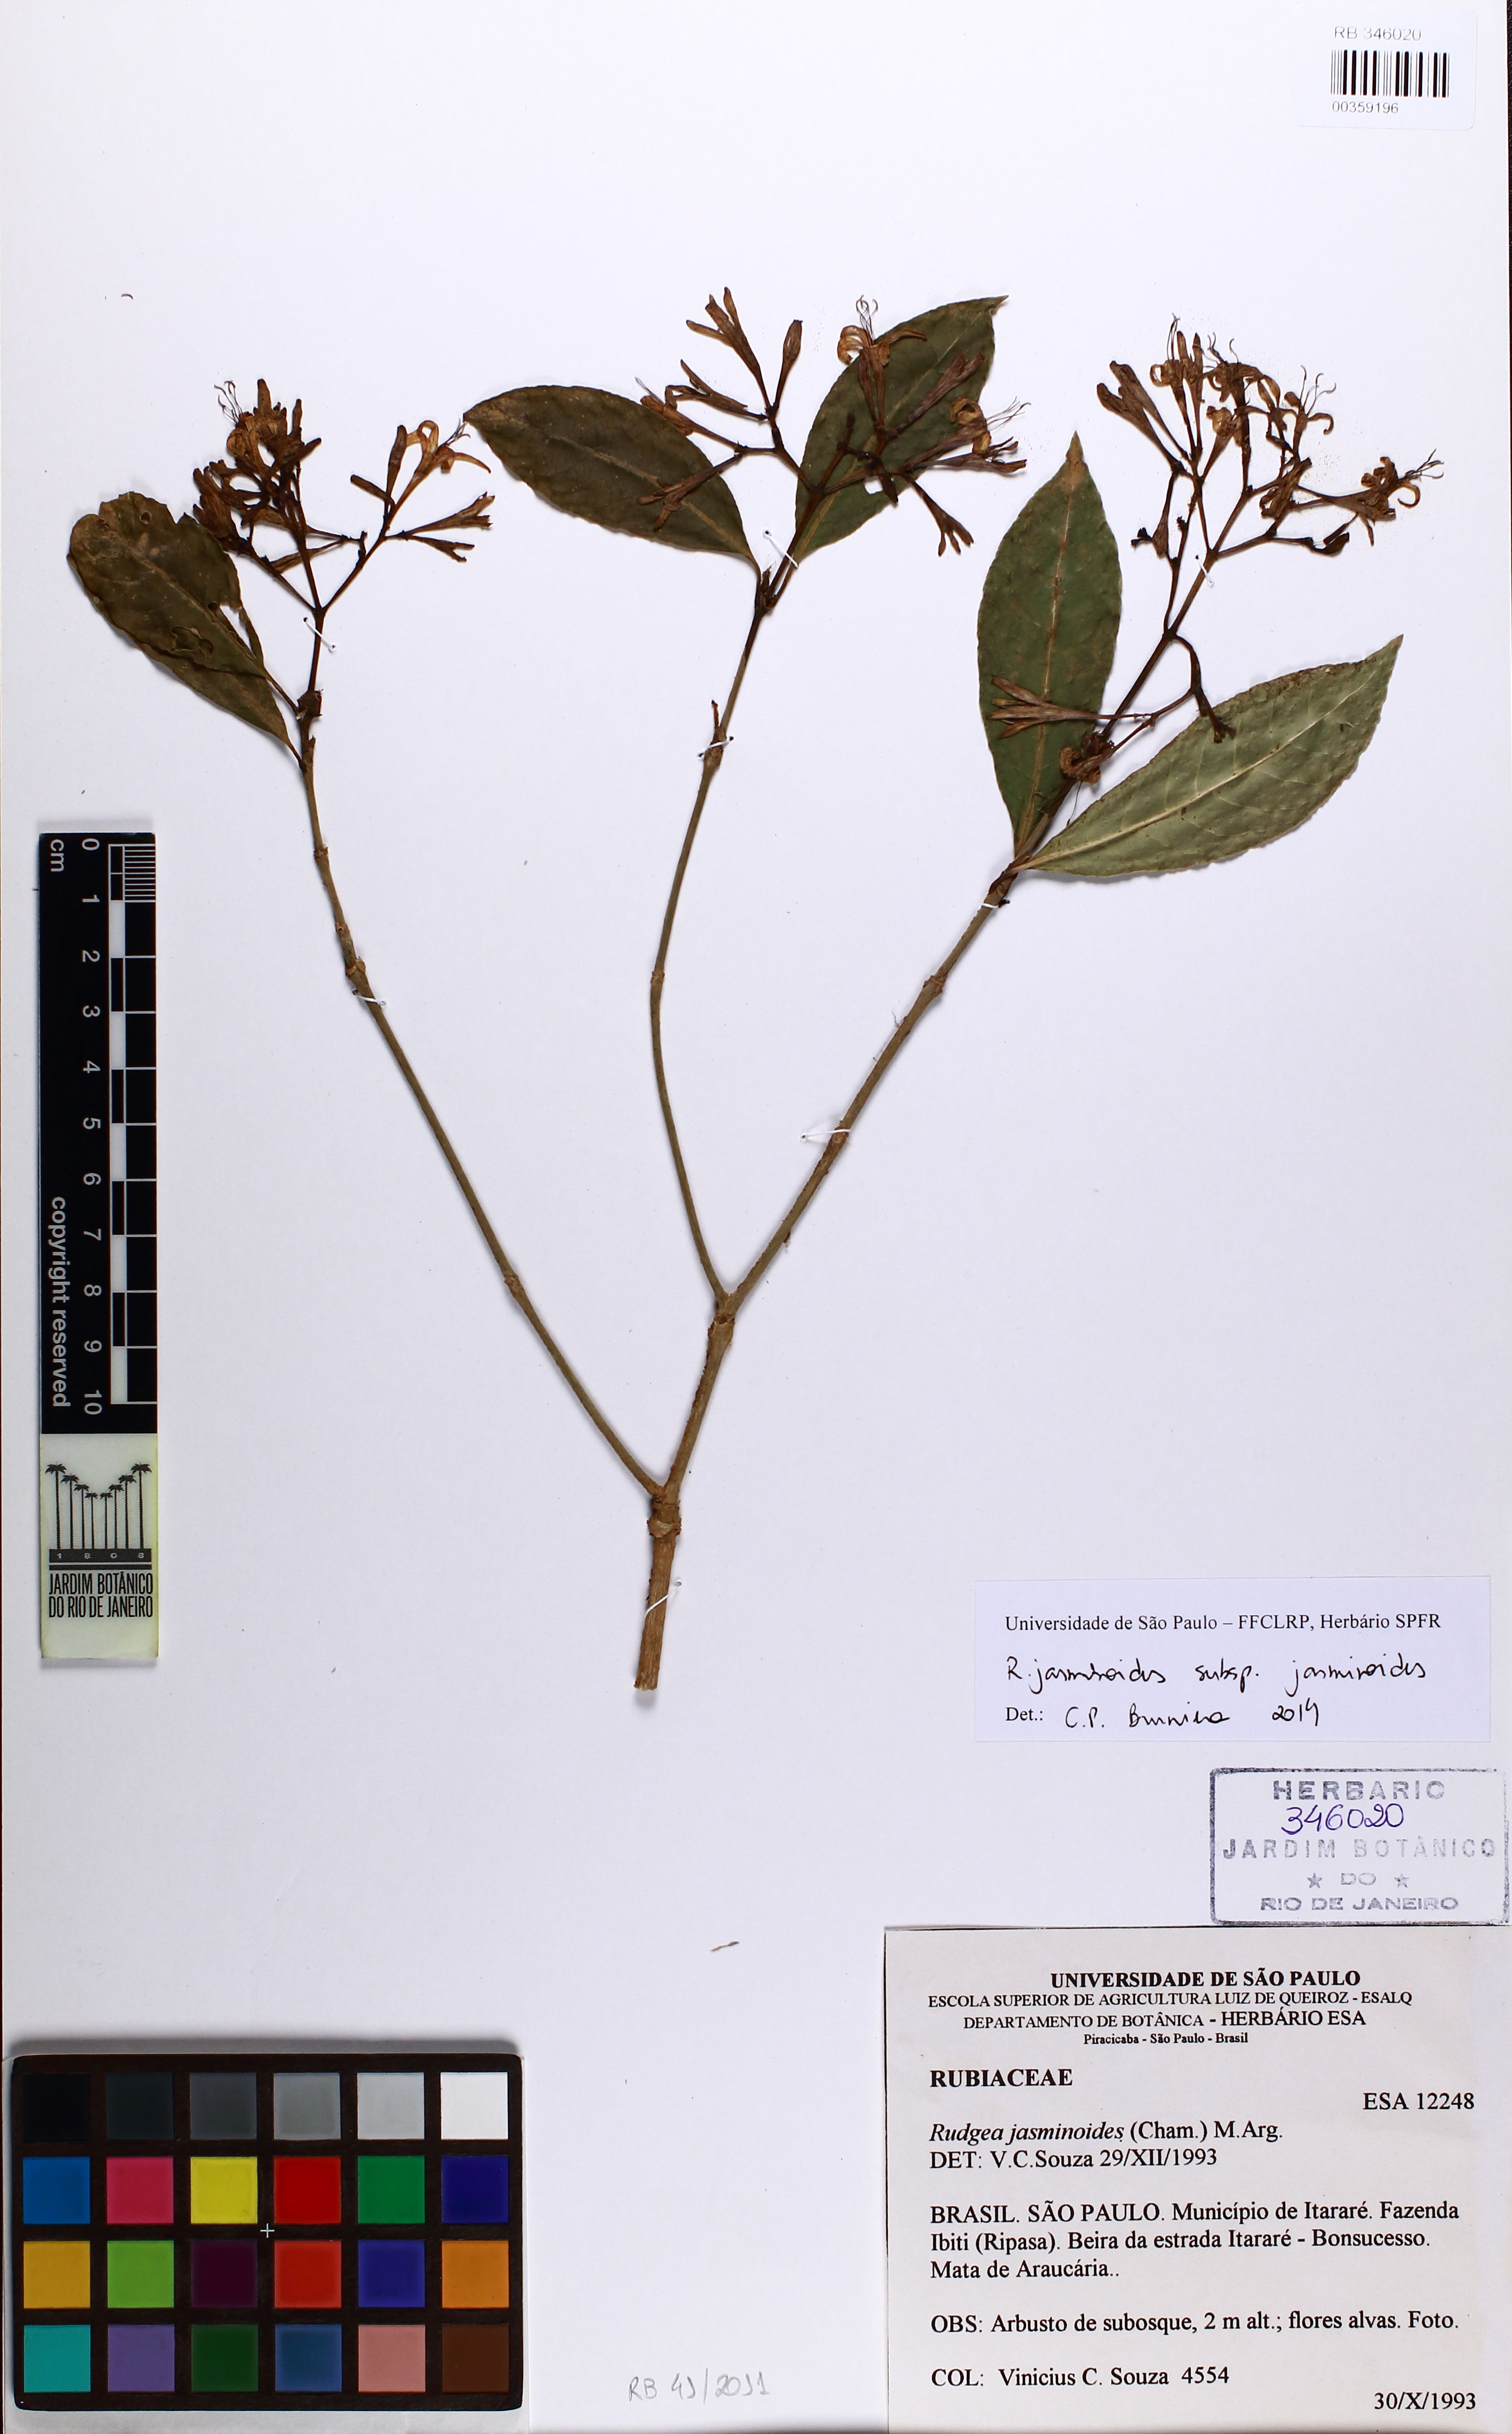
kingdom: Plantae
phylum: Tracheophyta
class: Magnoliopsida
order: Gentianales
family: Rubiaceae
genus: Rudgea
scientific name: Rudgea jasminoides
